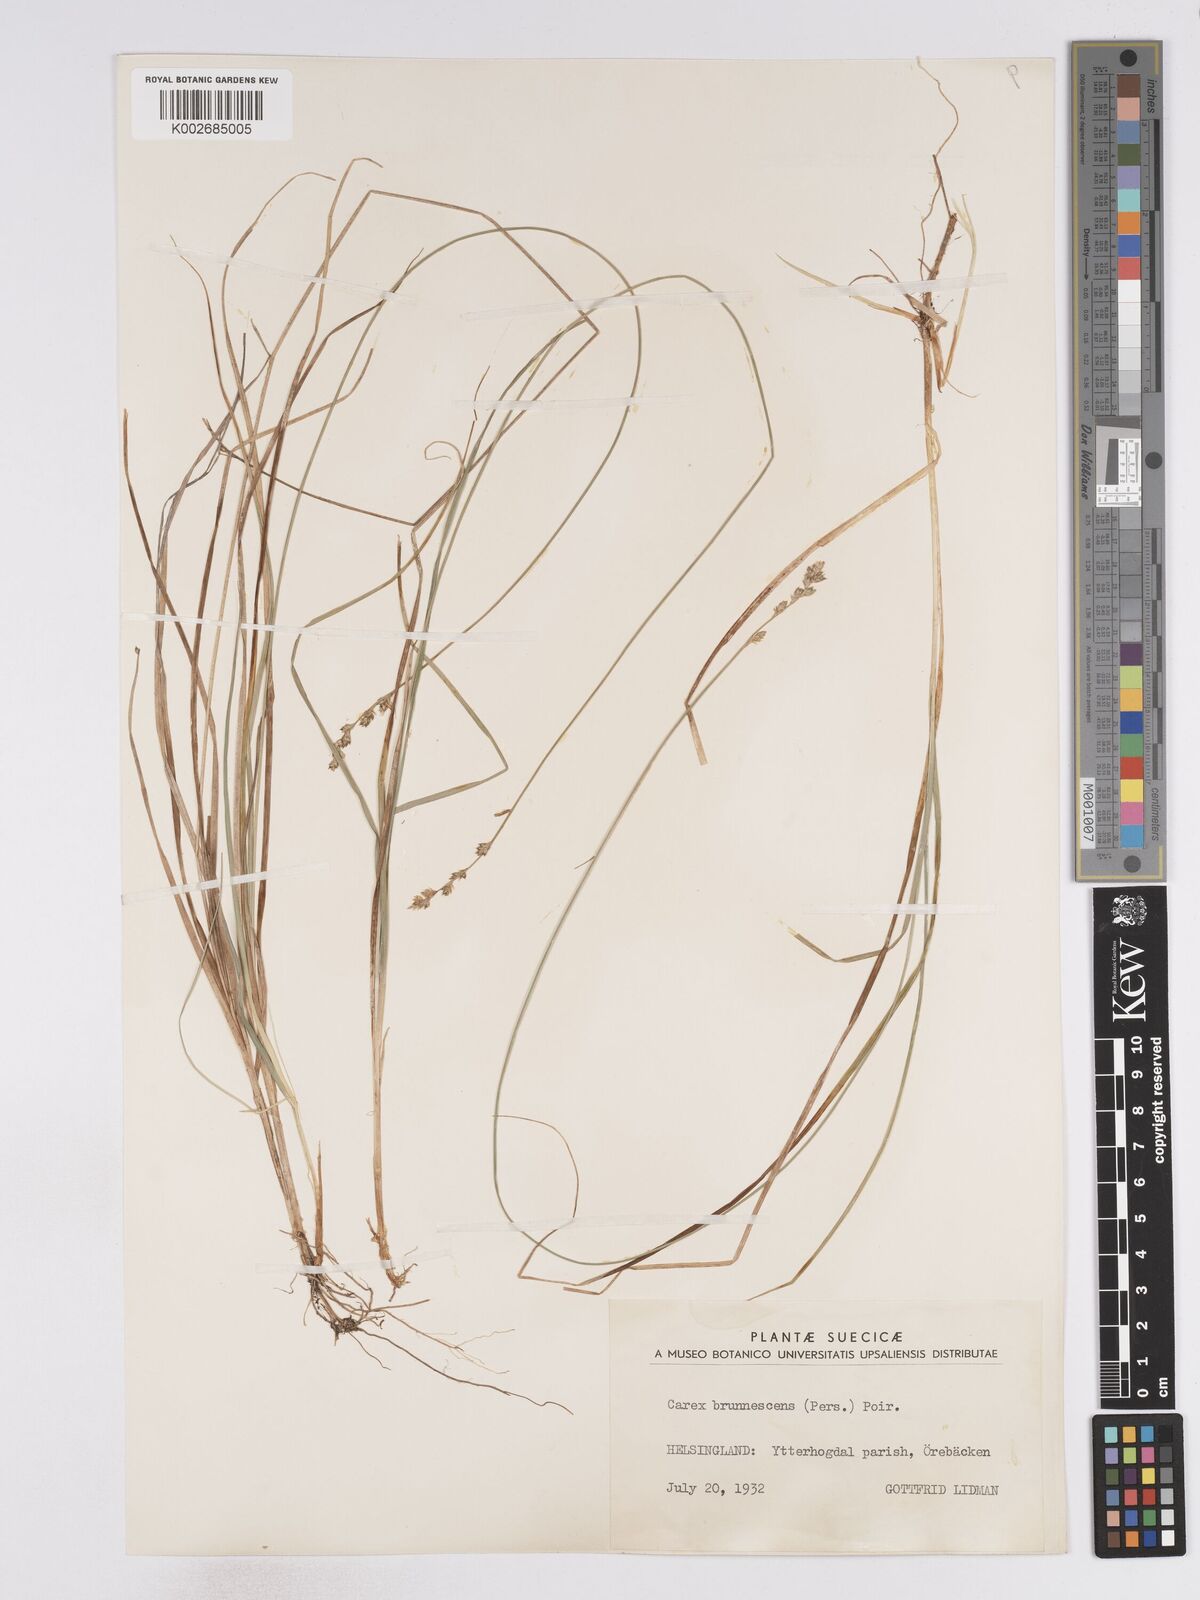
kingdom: Plantae
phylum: Tracheophyta
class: Liliopsida
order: Poales
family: Cyperaceae
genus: Carex
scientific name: Carex brunnescens
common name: Brown sedge
